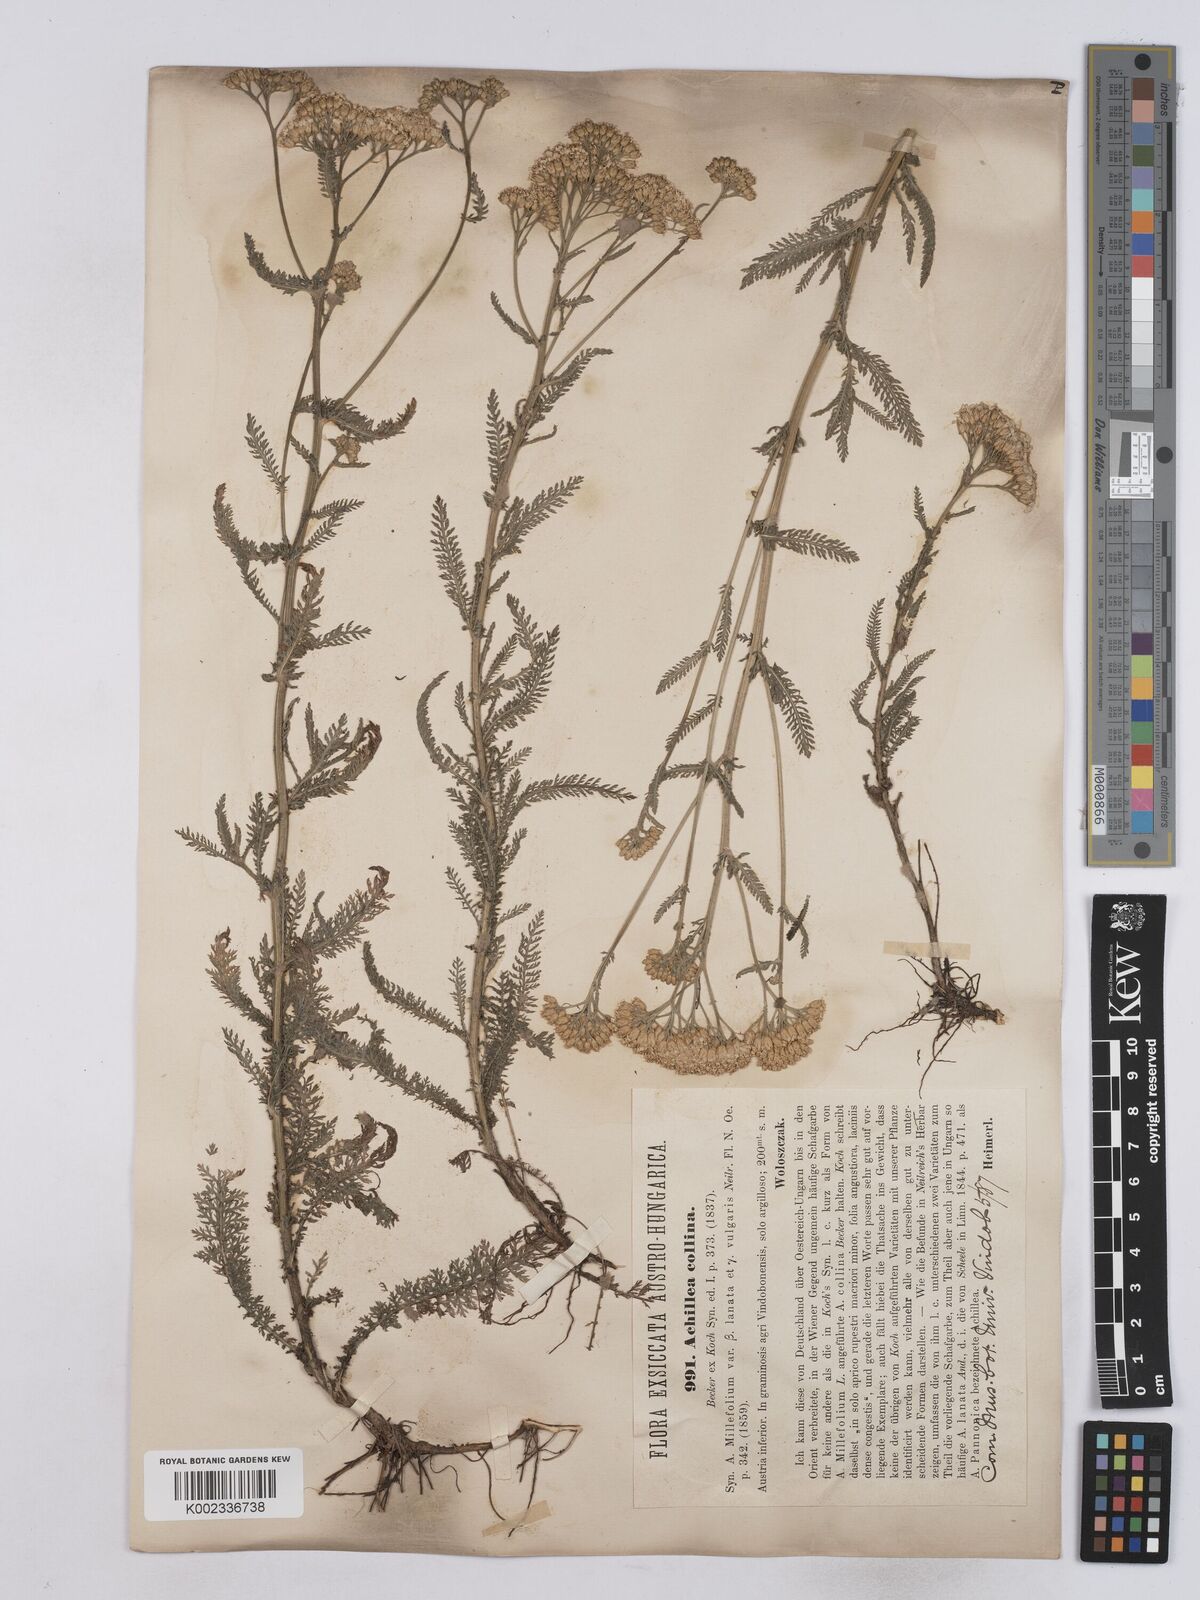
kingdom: Plantae
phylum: Tracheophyta
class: Magnoliopsida
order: Asterales
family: Asteraceae
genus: Achillea
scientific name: Achillea collina
